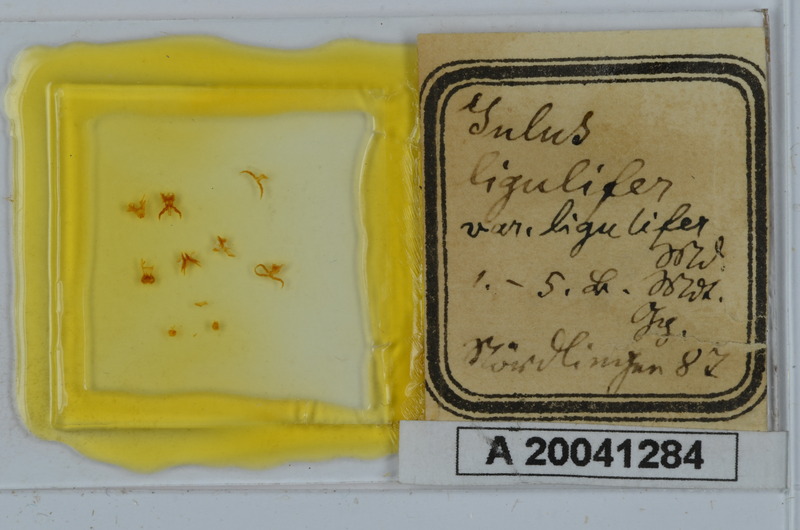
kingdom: Animalia
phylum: Arthropoda
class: Diplopoda
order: Julida
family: Julidae
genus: Julus
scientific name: Julus scandinavius
